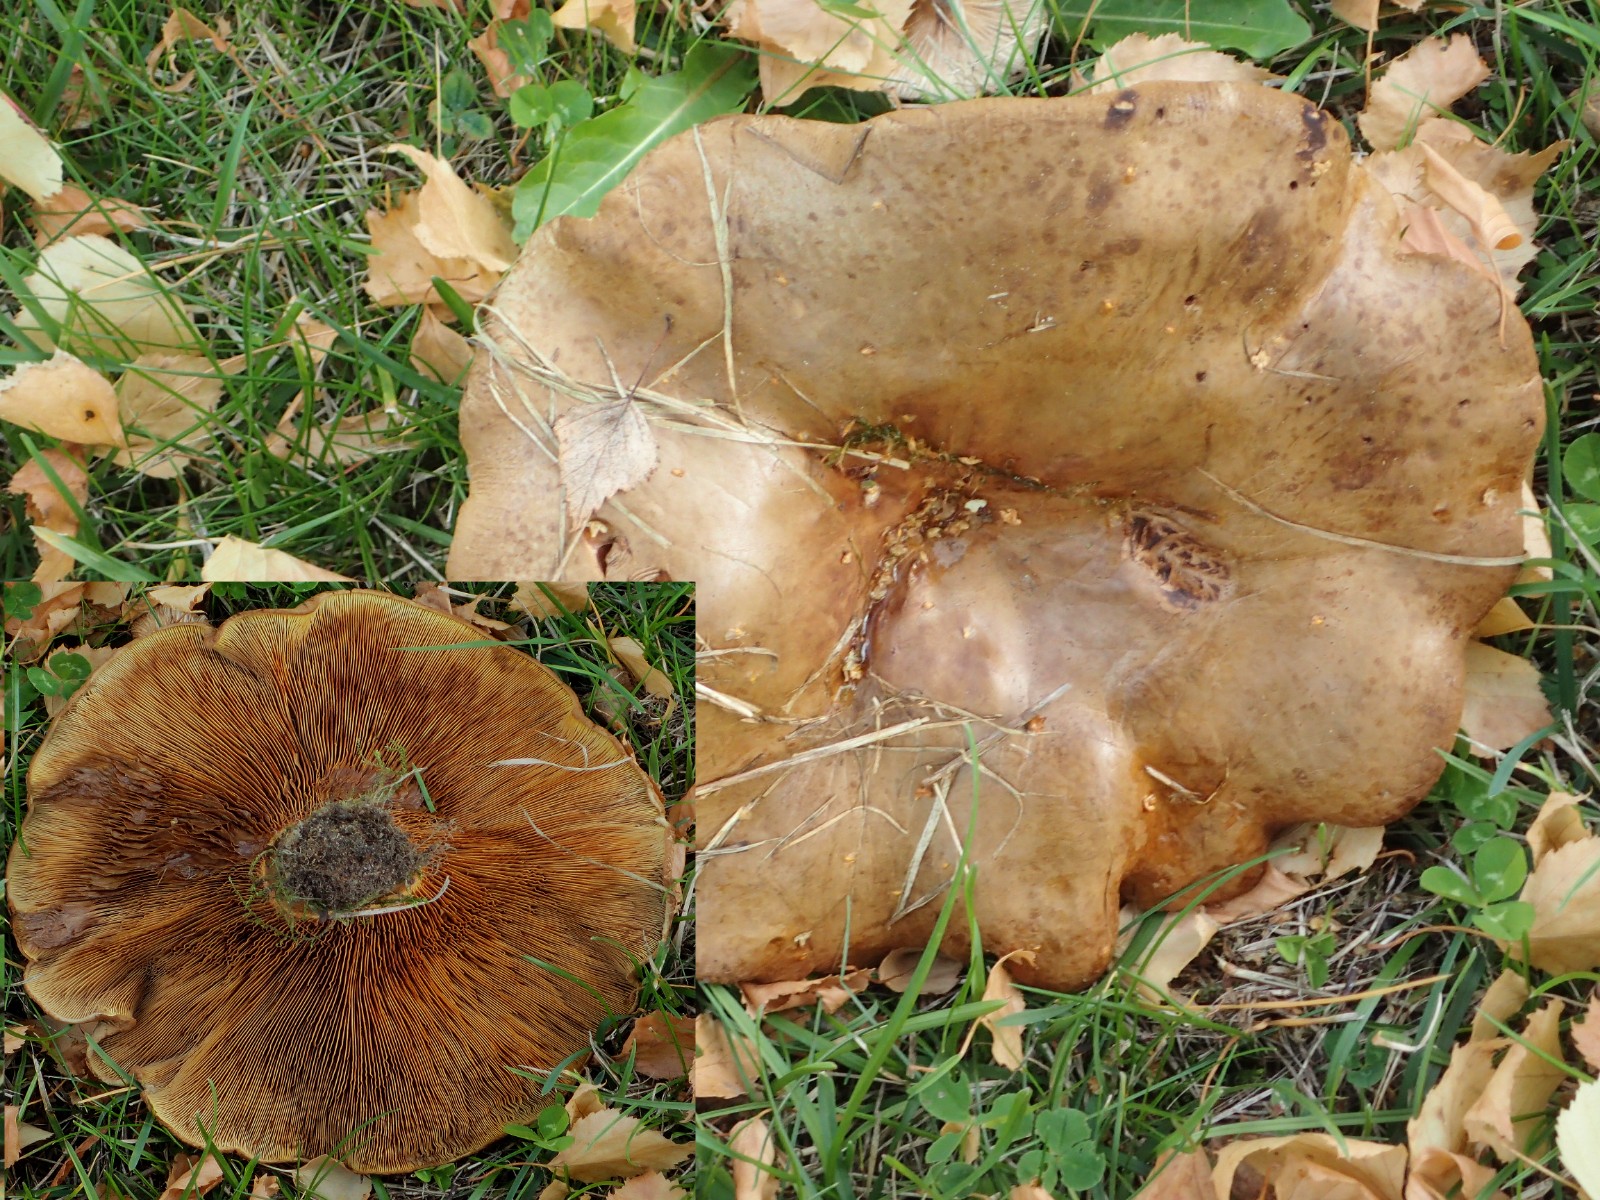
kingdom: Fungi
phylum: Basidiomycota
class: Agaricomycetes
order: Boletales
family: Paxillaceae
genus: Paxillus
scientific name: Paxillus obscurisporus
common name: mahognisporet netbladhat
